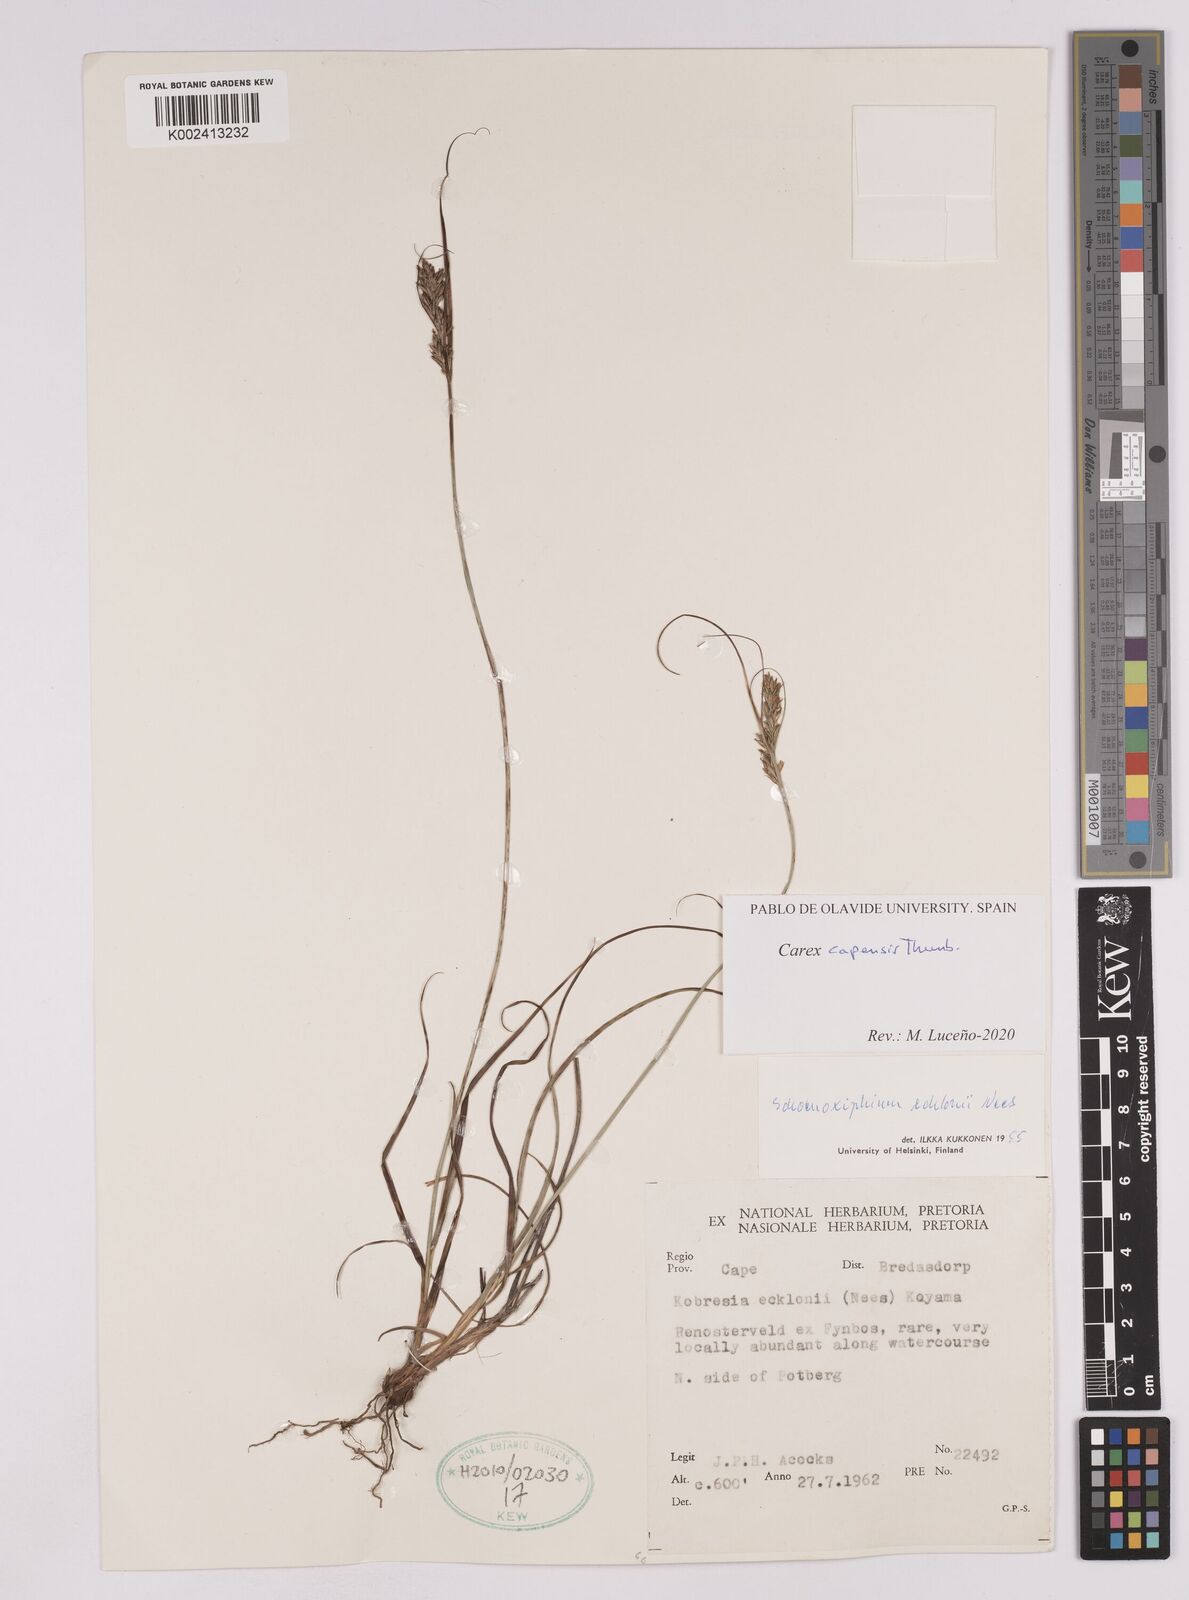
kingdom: Plantae
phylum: Tracheophyta
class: Liliopsida
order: Poales
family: Cyperaceae
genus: Carex
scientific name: Carex capensis
